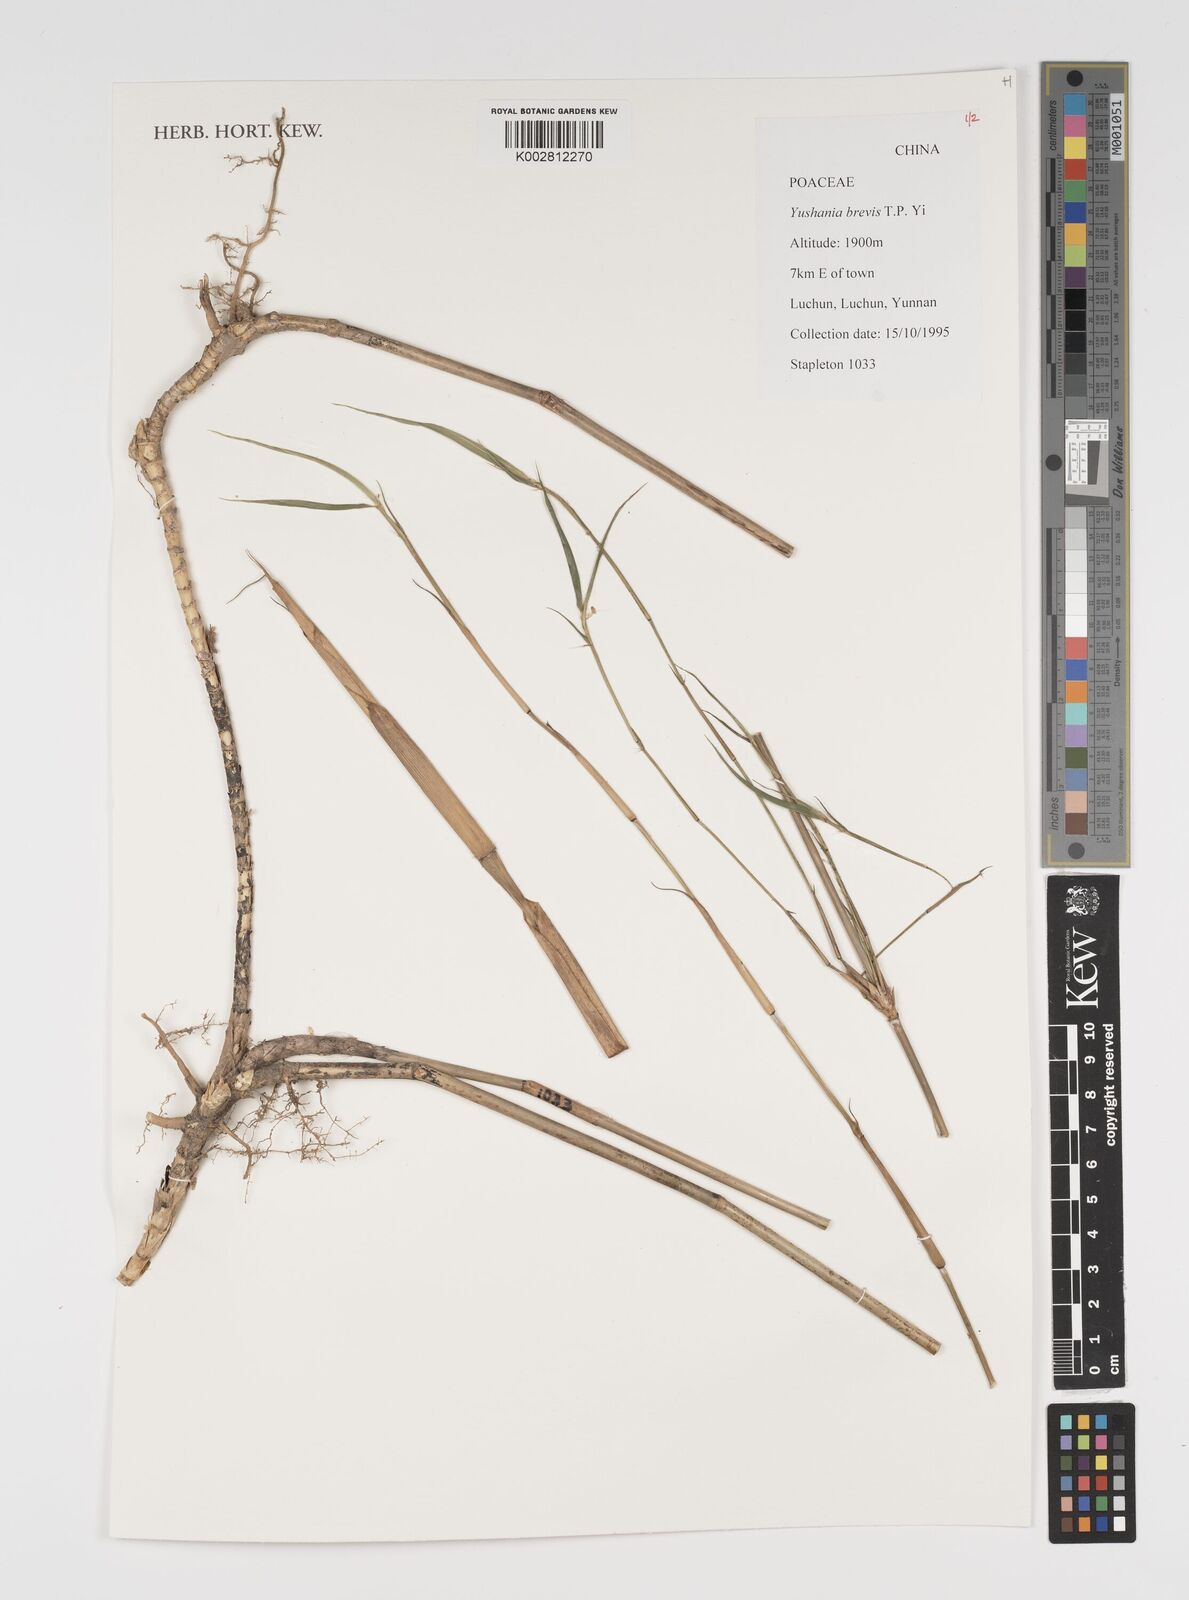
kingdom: Plantae
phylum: Tracheophyta
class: Liliopsida
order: Poales
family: Poaceae
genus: Yushania
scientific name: Yushania brevis
